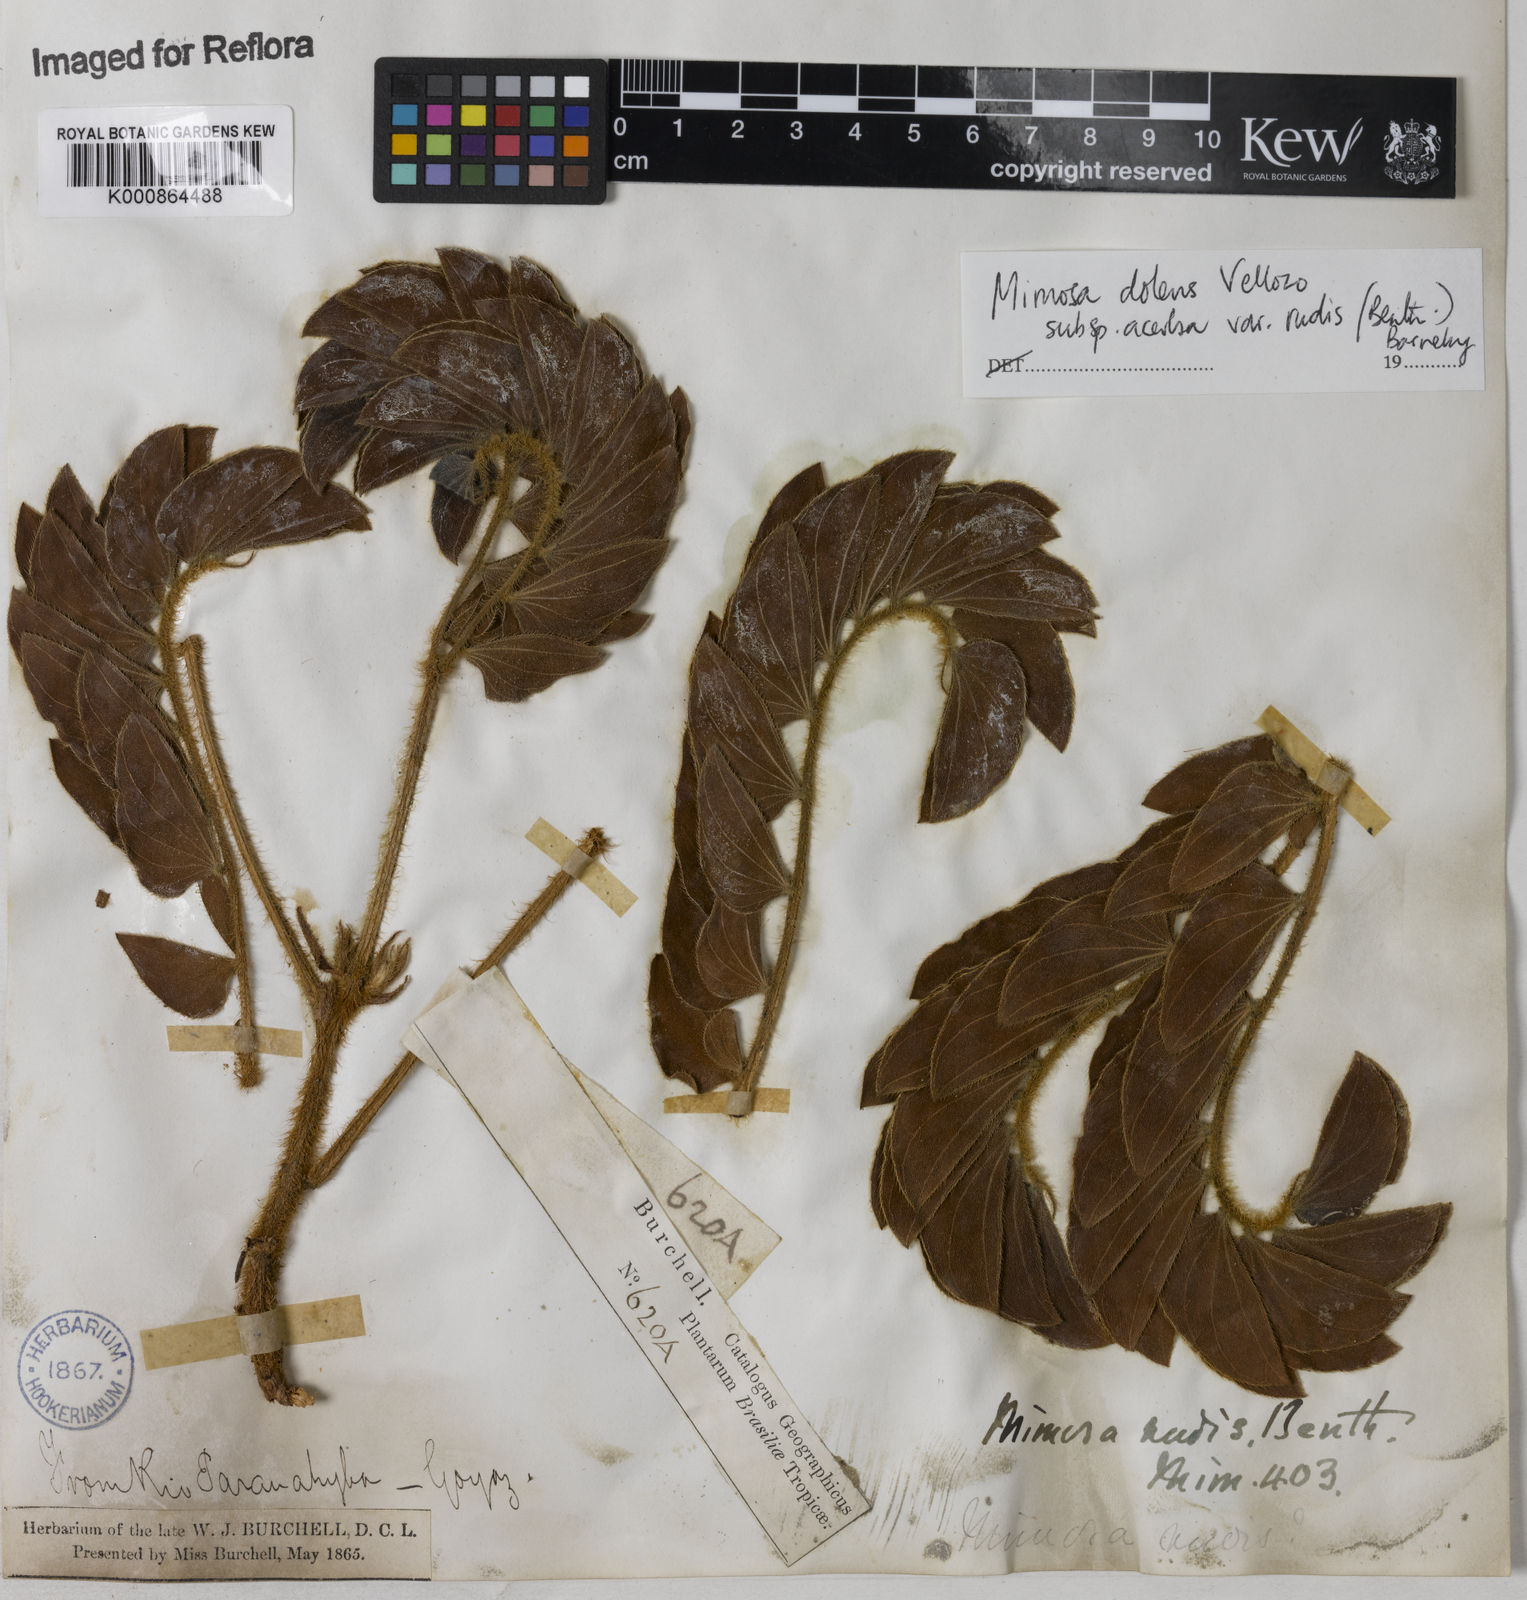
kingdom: Plantae
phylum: Tracheophyta
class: Magnoliopsida
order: Fabales
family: Fabaceae
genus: Mimosa
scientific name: Mimosa dolens
